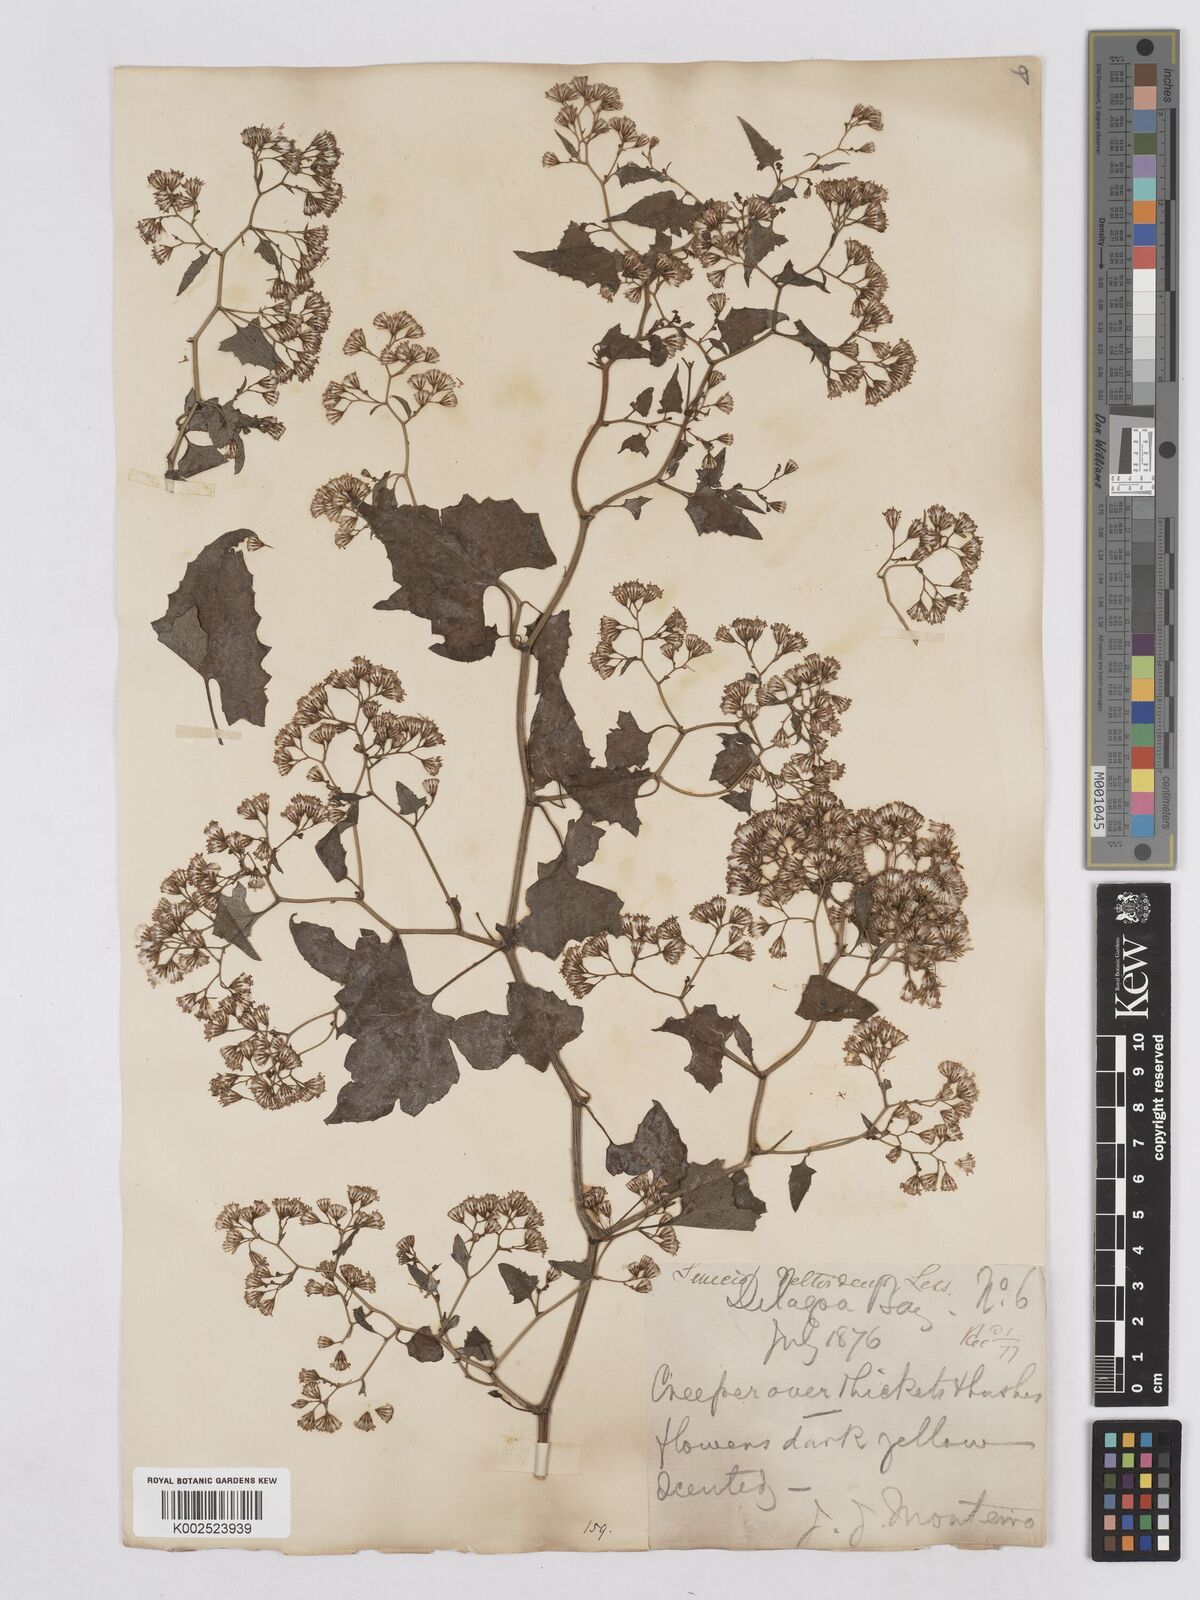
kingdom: Plantae
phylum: Tracheophyta
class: Magnoliopsida
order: Asterales
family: Asteraceae
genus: Senecio
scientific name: Senecio deltoideus
